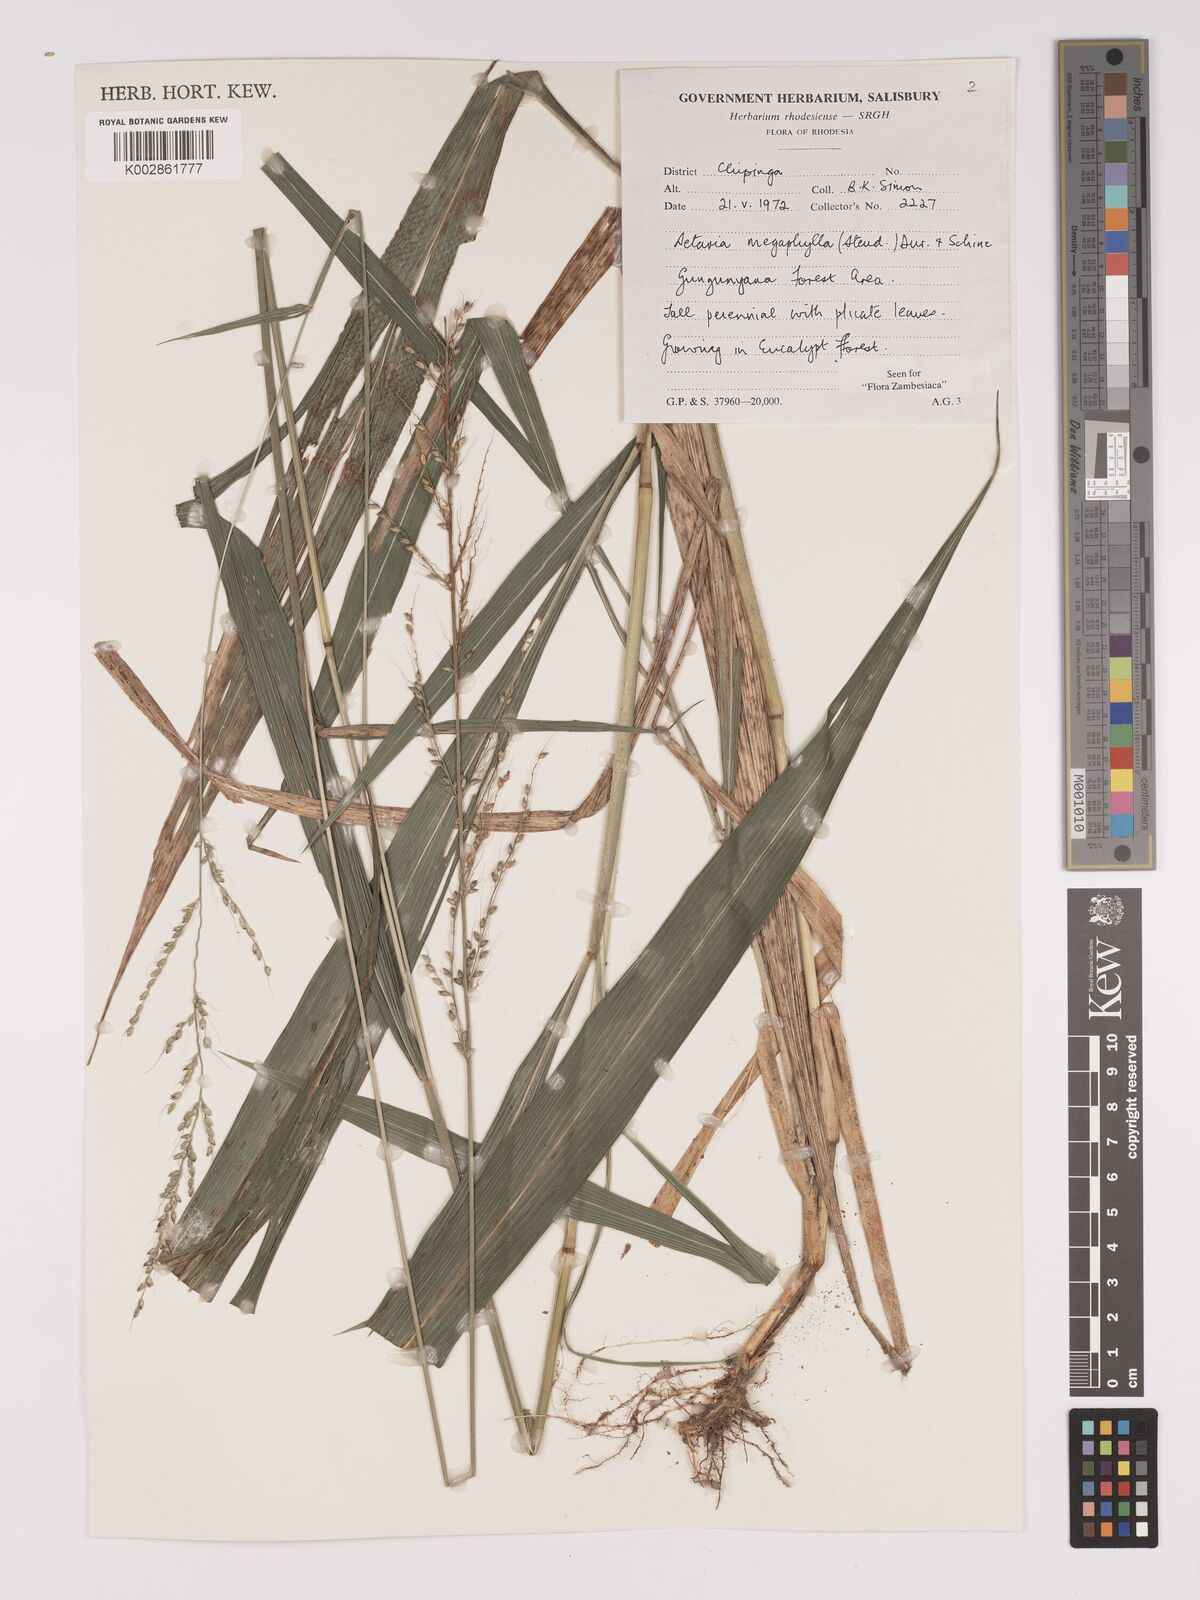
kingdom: Plantae
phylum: Tracheophyta
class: Liliopsida
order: Poales
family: Poaceae
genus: Setaria
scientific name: Setaria megaphylla
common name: Bigleaf bristlegrass
